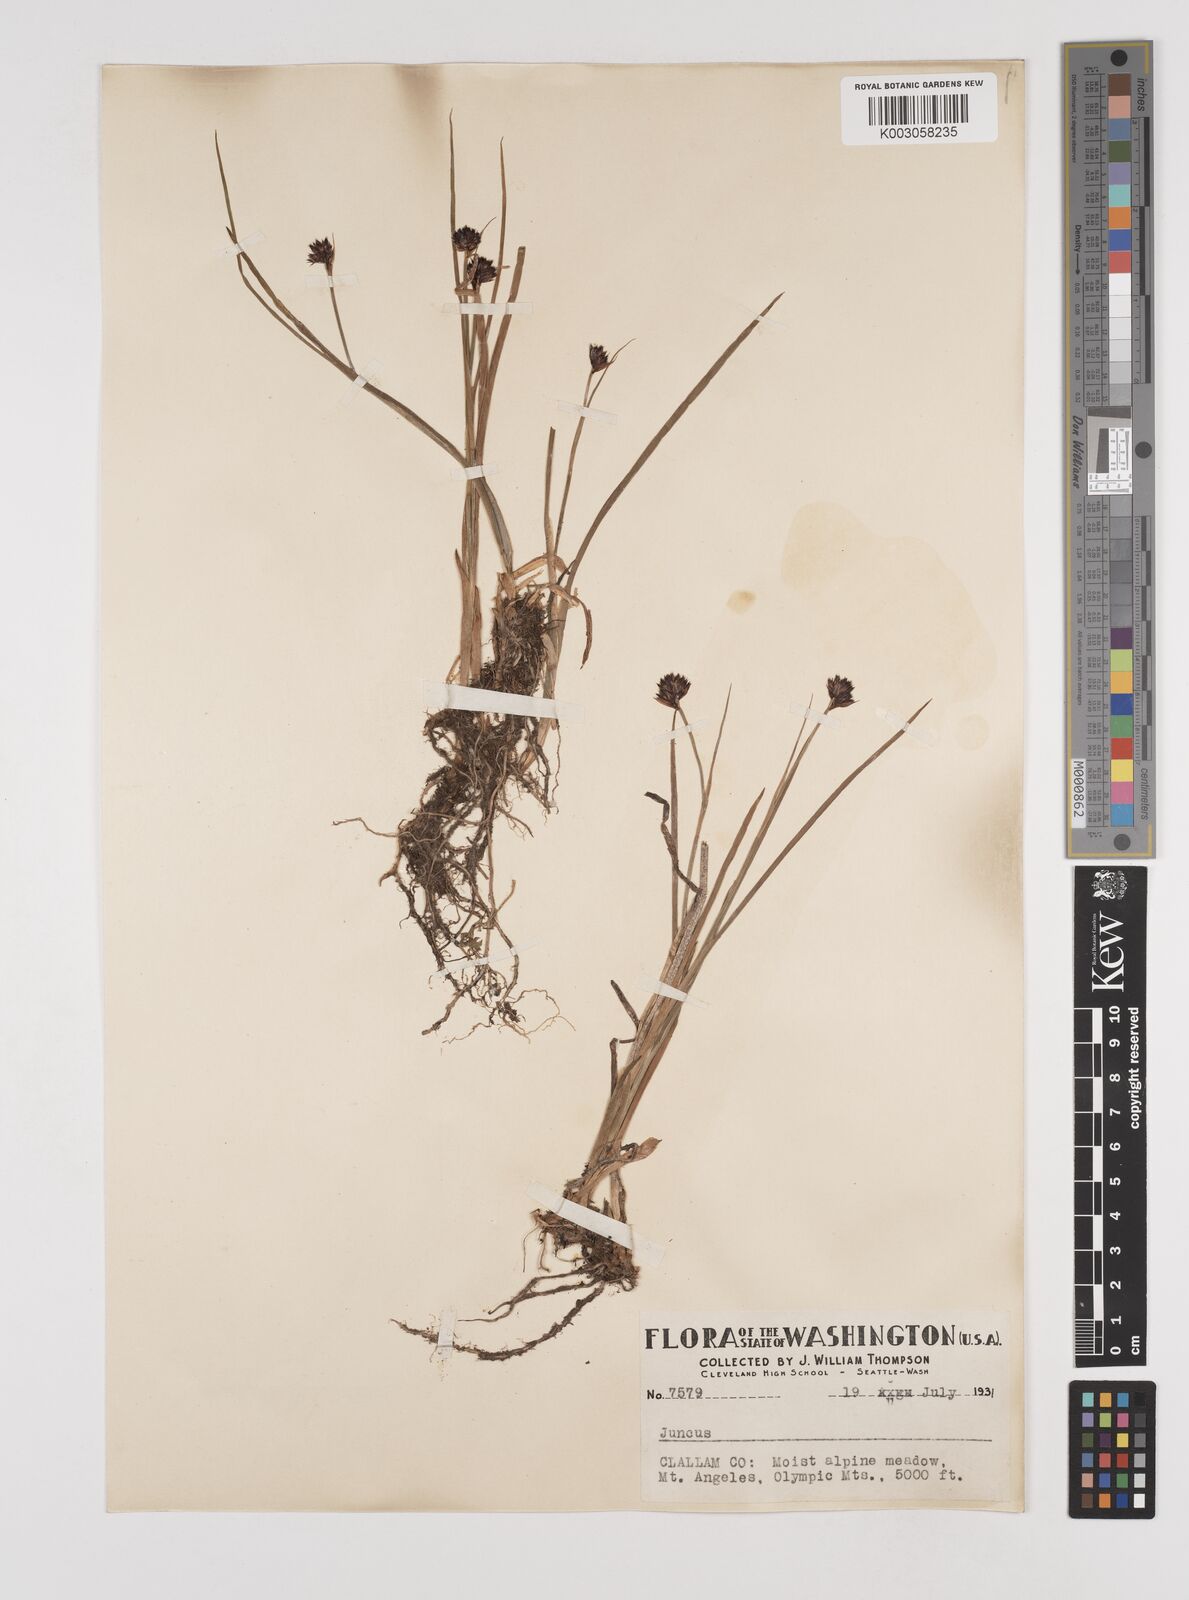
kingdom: Plantae
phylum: Tracheophyta
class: Liliopsida
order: Poales
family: Juncaceae
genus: Juncus
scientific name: Juncus
